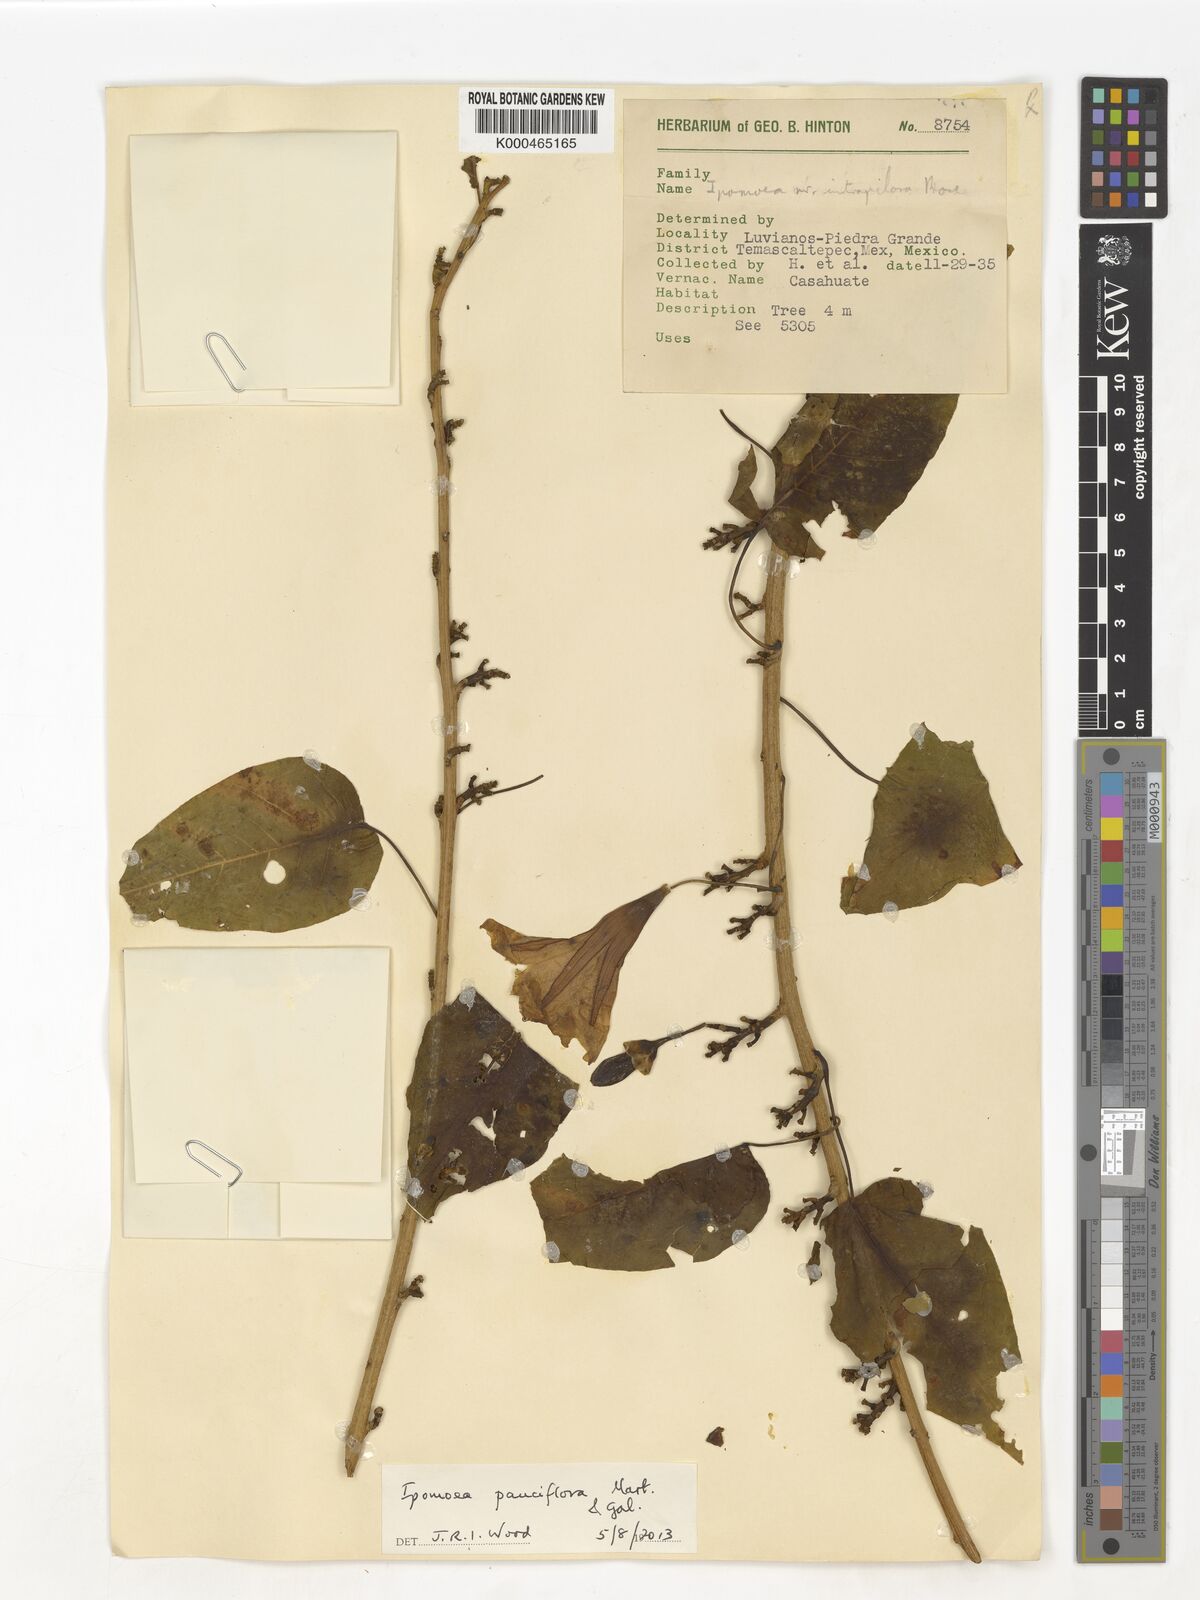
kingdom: Plantae
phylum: Tracheophyta
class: Magnoliopsida
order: Solanales
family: Convolvulaceae
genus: Ipomoea
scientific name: Ipomoea intrapilosa
